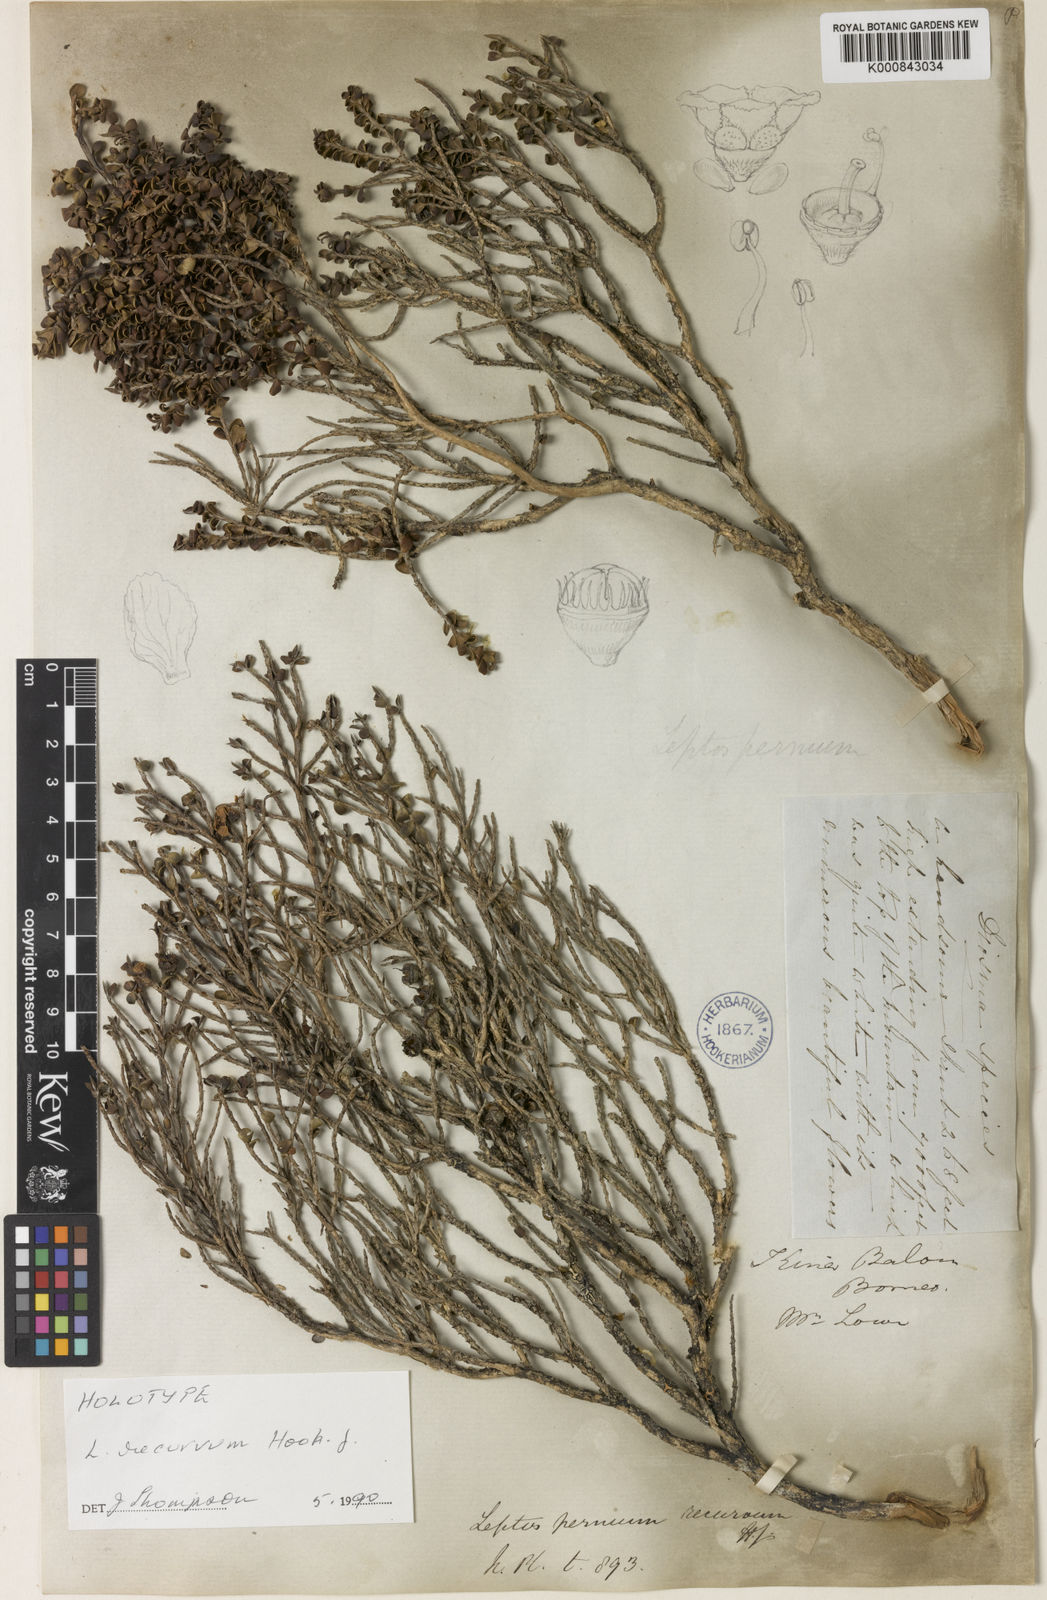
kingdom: Plantae
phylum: Tracheophyta
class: Magnoliopsida
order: Myrtales
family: Myrtaceae
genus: Leptospermum
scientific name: Leptospermum recurvum
